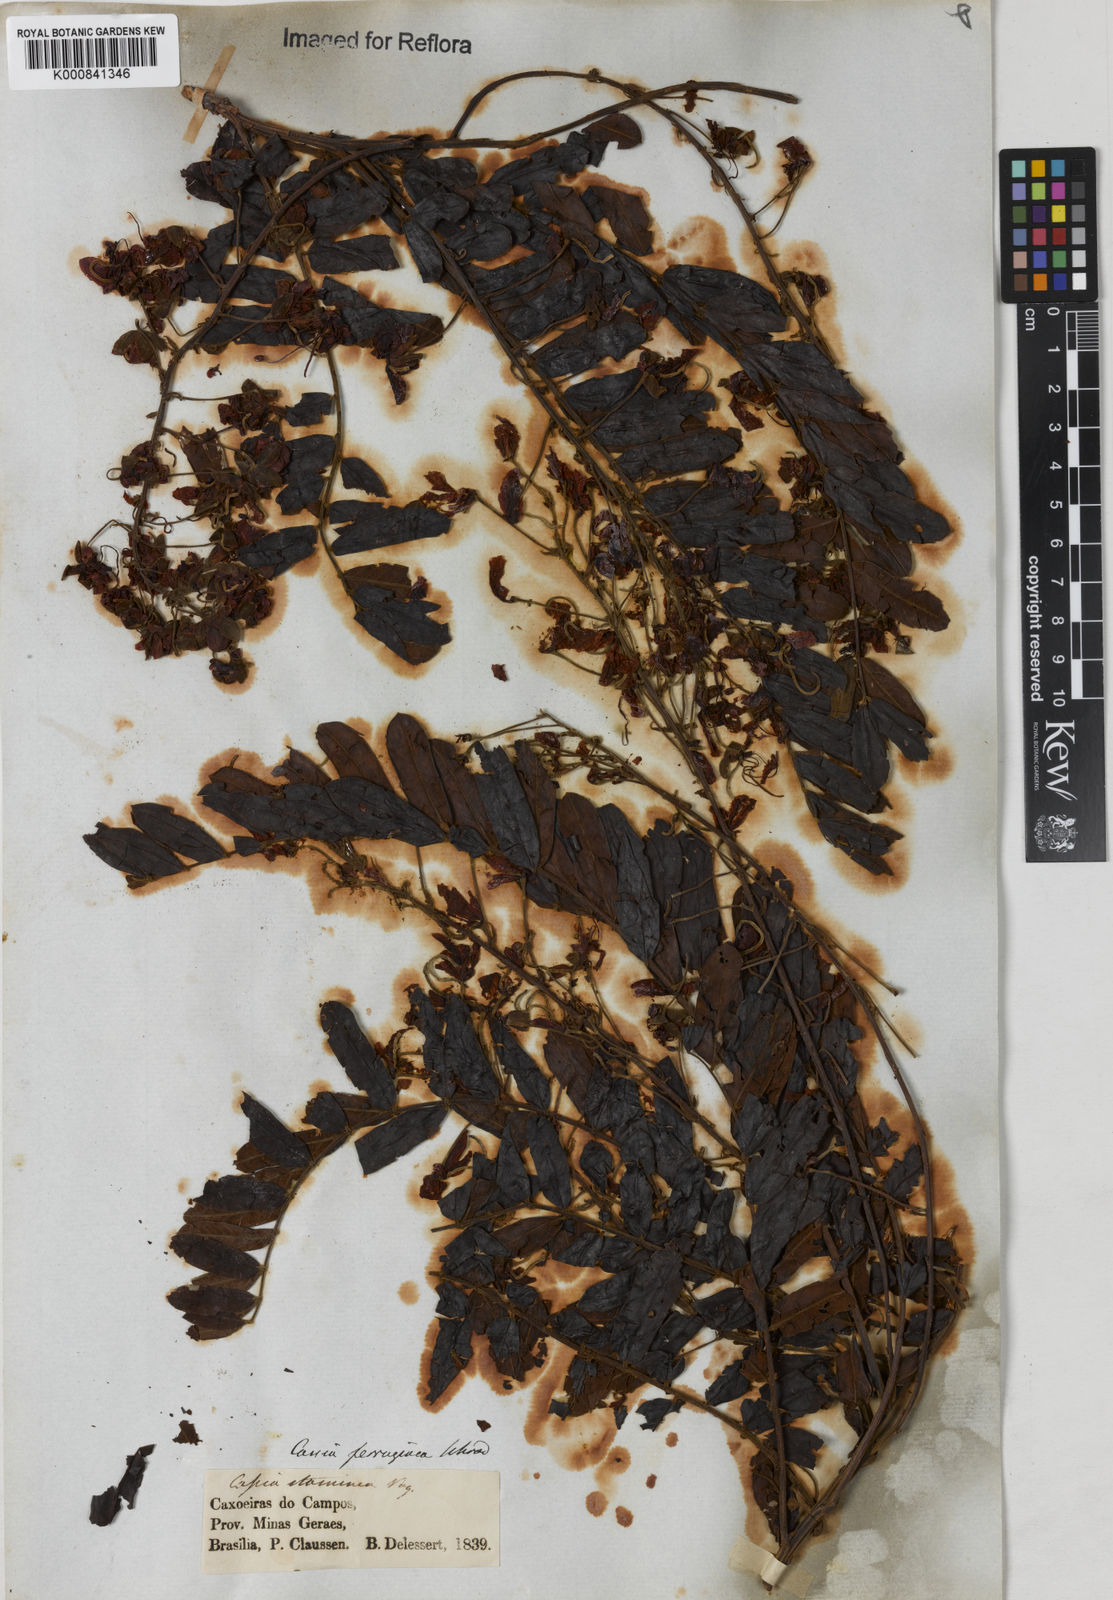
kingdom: Plantae
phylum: Tracheophyta
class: Magnoliopsida
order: Fabales
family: Fabaceae
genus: Cassia
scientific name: Cassia ferruginea
